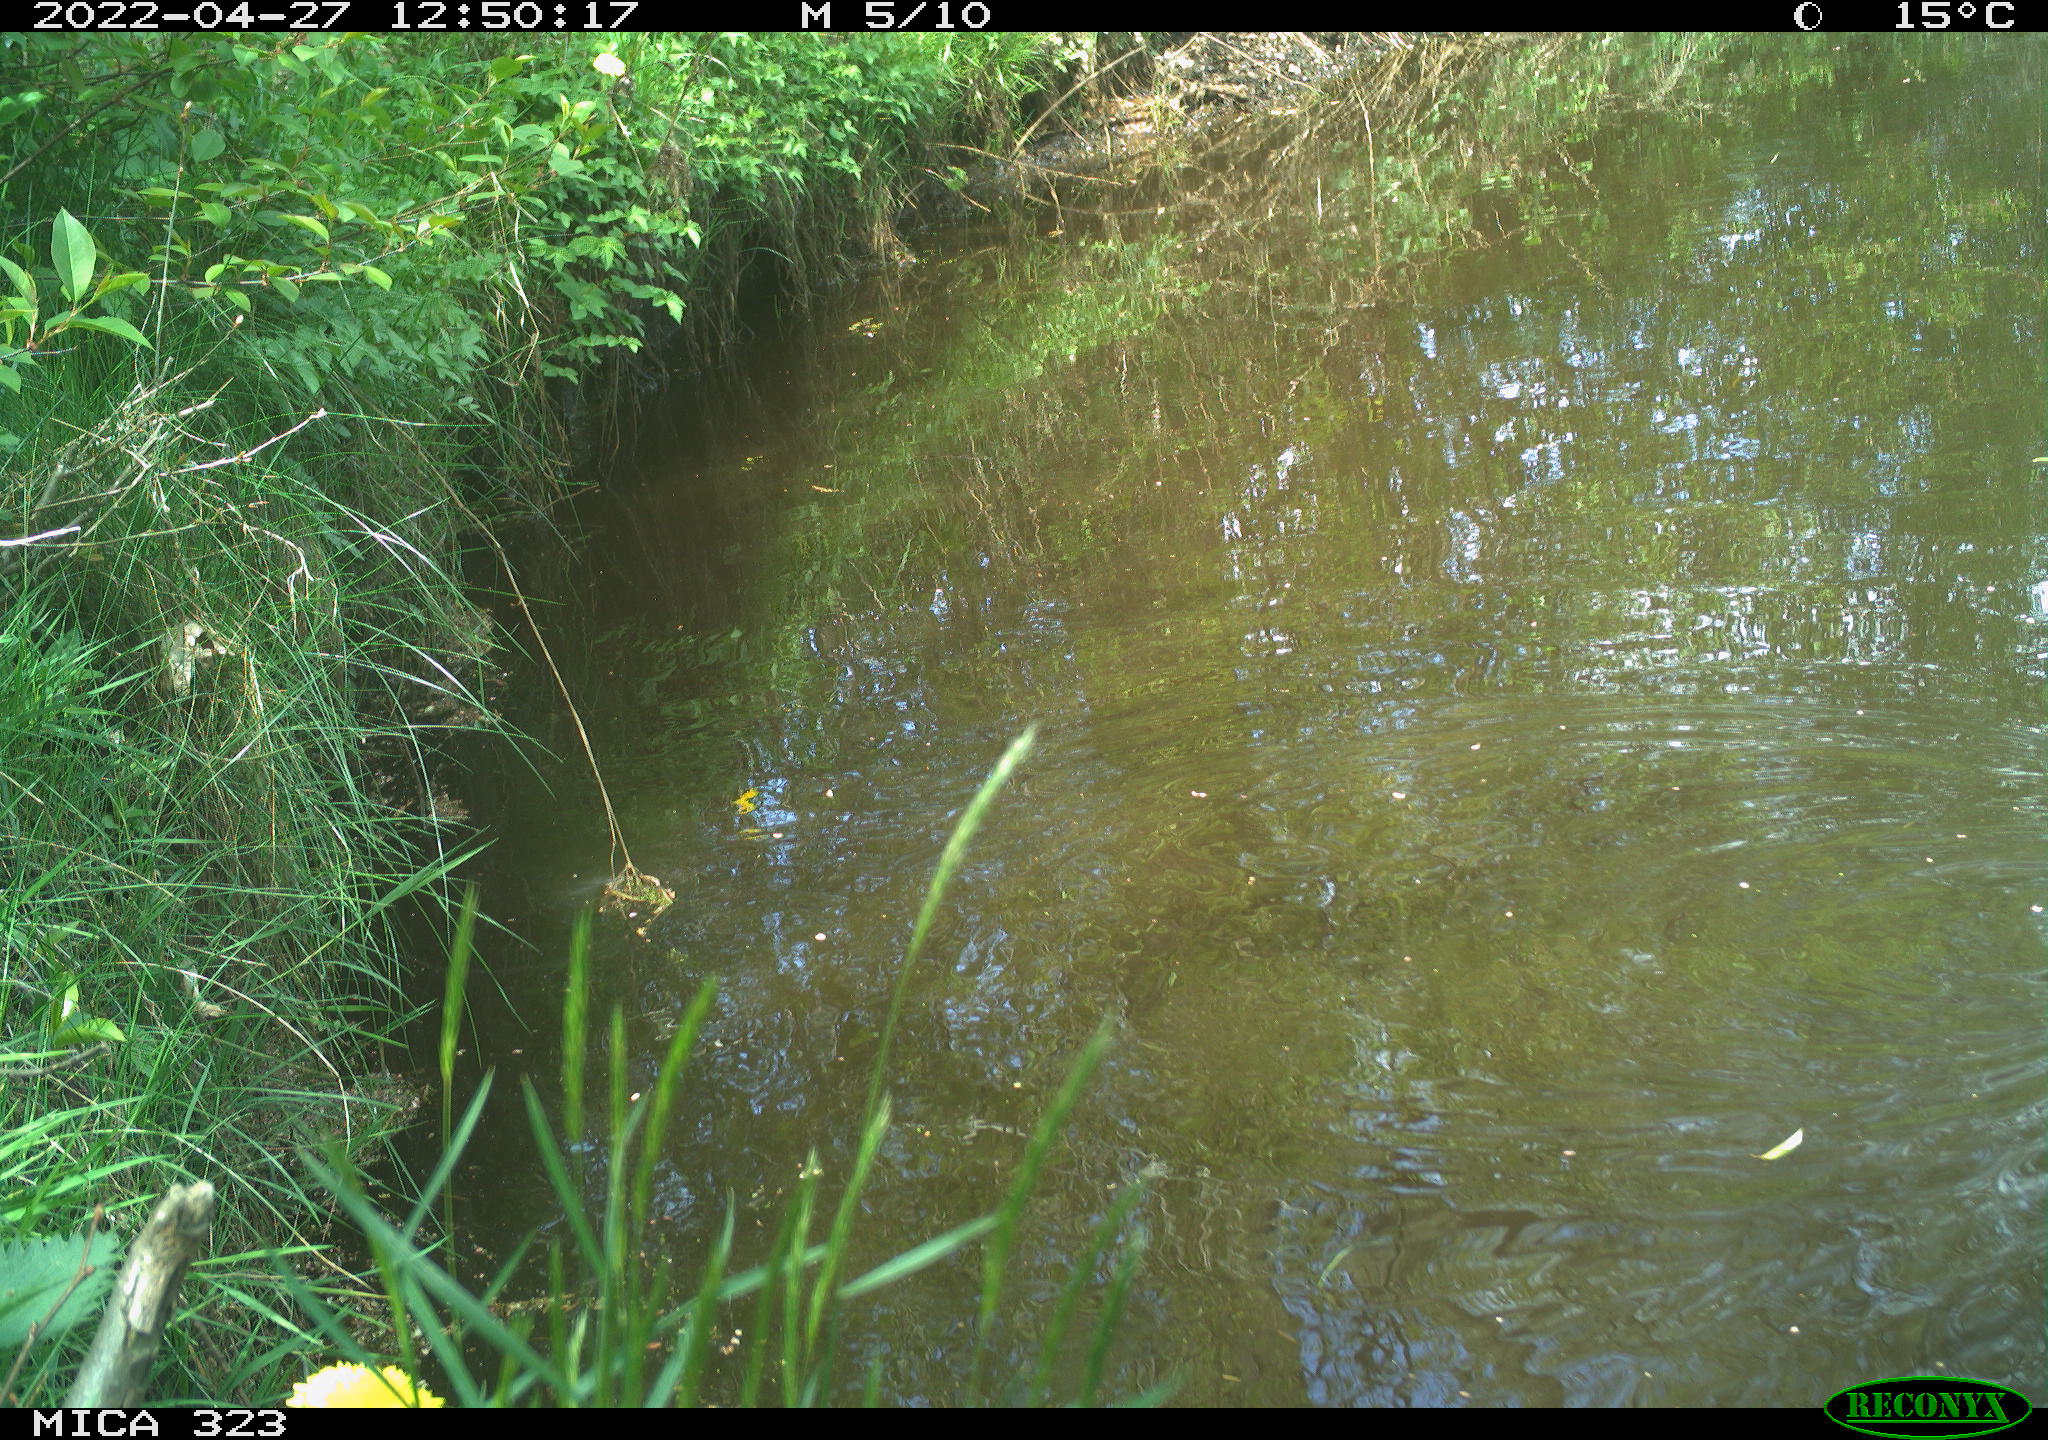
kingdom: Animalia
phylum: Chordata
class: Aves
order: Gruiformes
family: Rallidae
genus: Gallinula
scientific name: Gallinula chloropus
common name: Common moorhen
